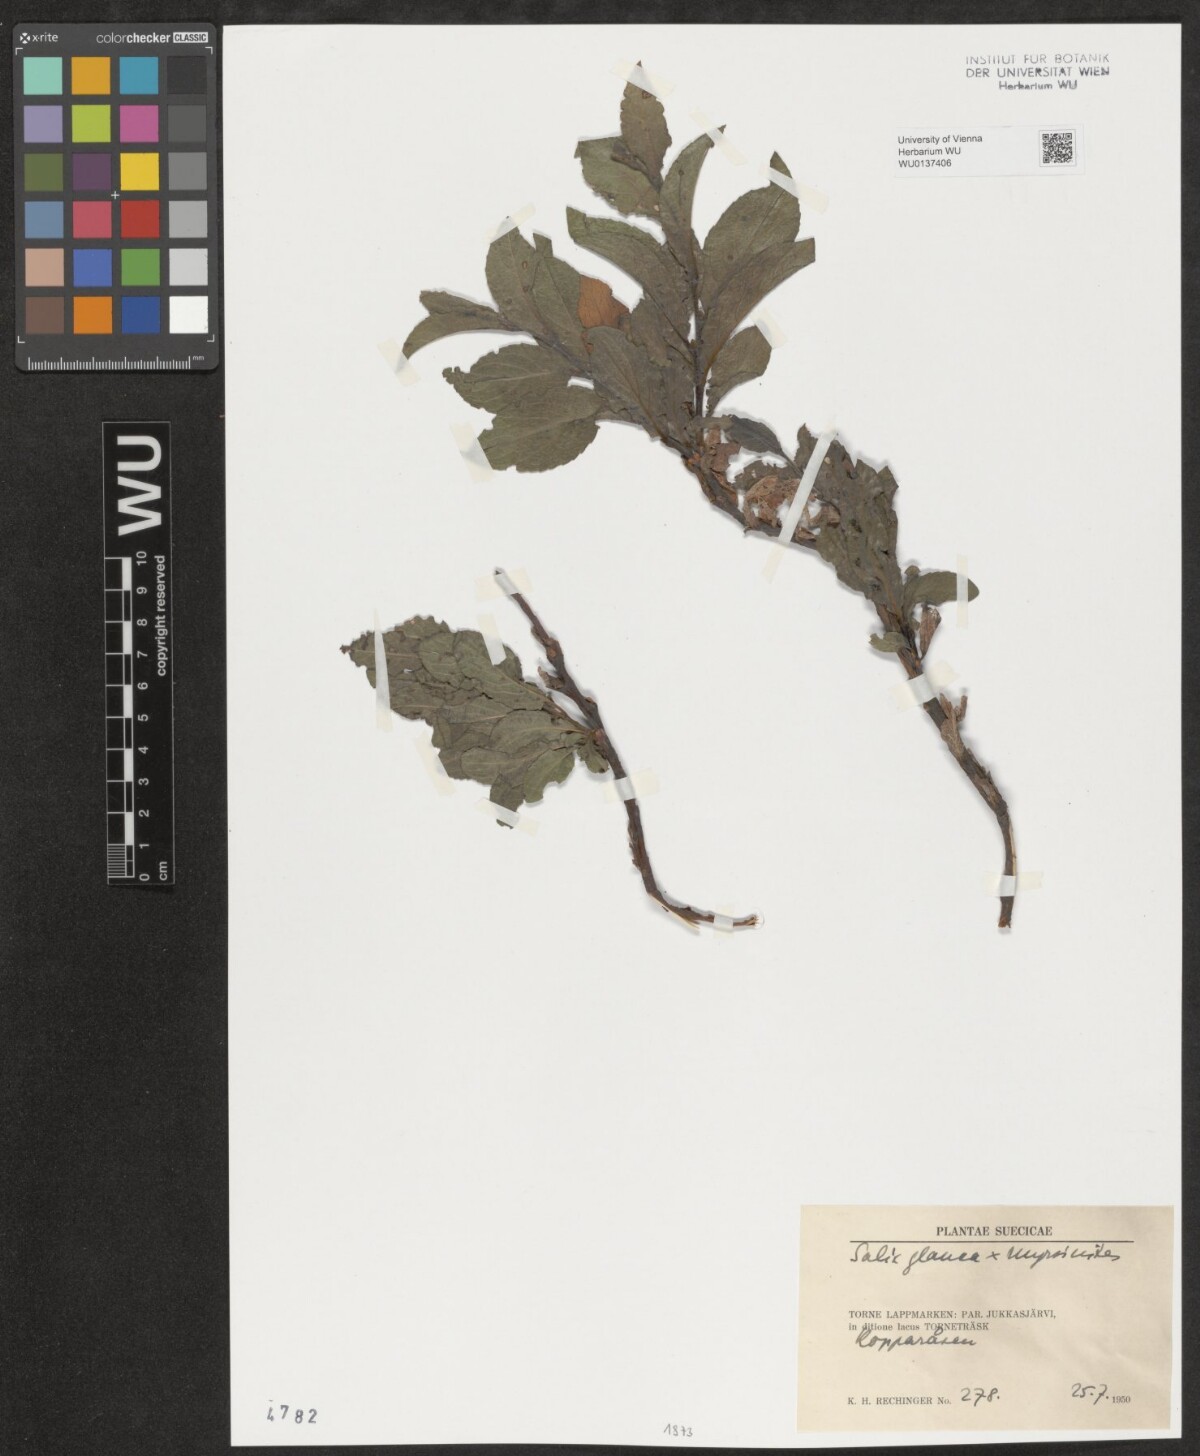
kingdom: Plantae
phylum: Tracheophyta
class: Magnoliopsida
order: Malpighiales
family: Salicaceae
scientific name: Salicaceae
